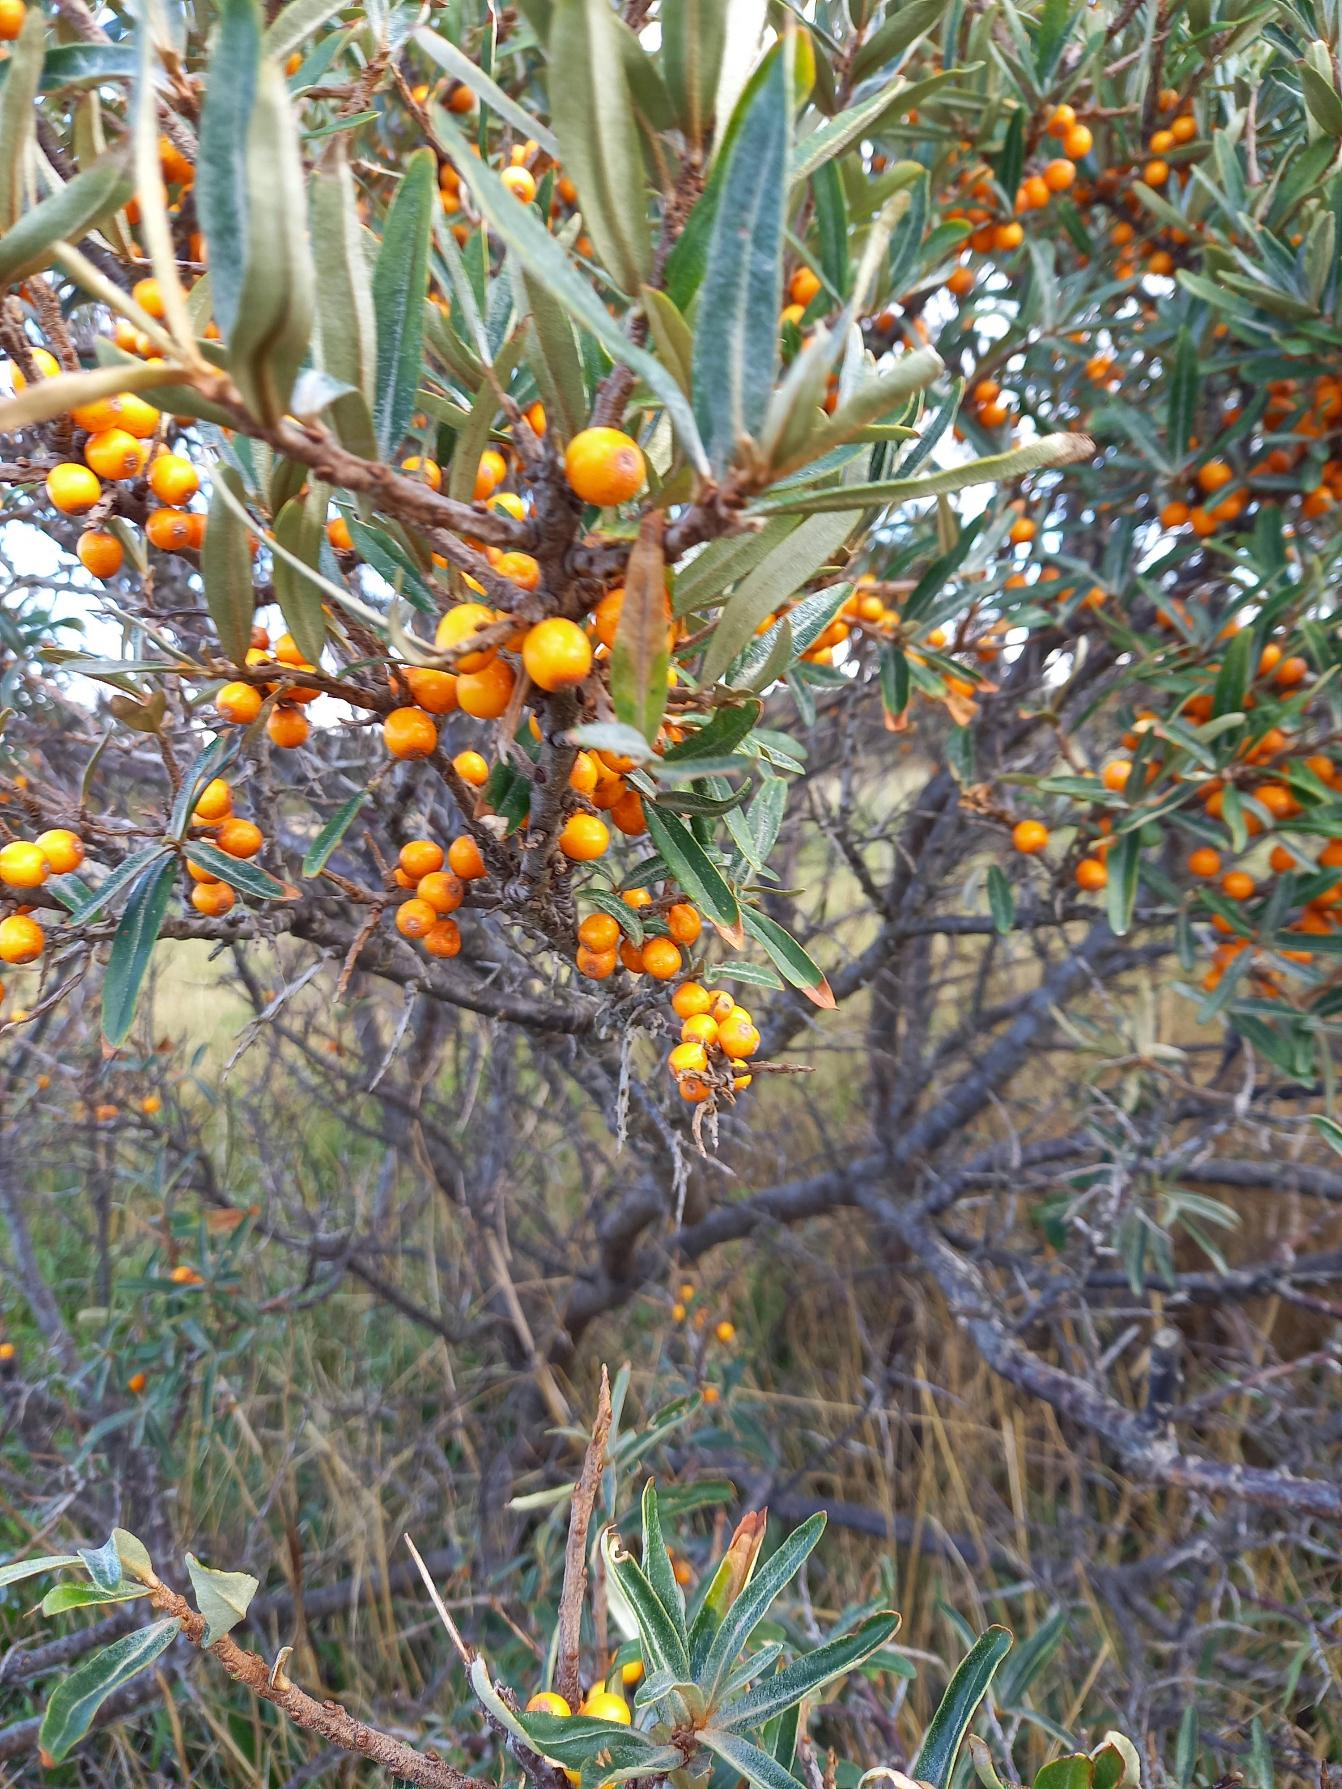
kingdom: Plantae
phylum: Tracheophyta
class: Magnoliopsida
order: Rosales
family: Elaeagnaceae
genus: Hippophae
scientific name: Hippophae rhamnoides
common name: Havtorn
